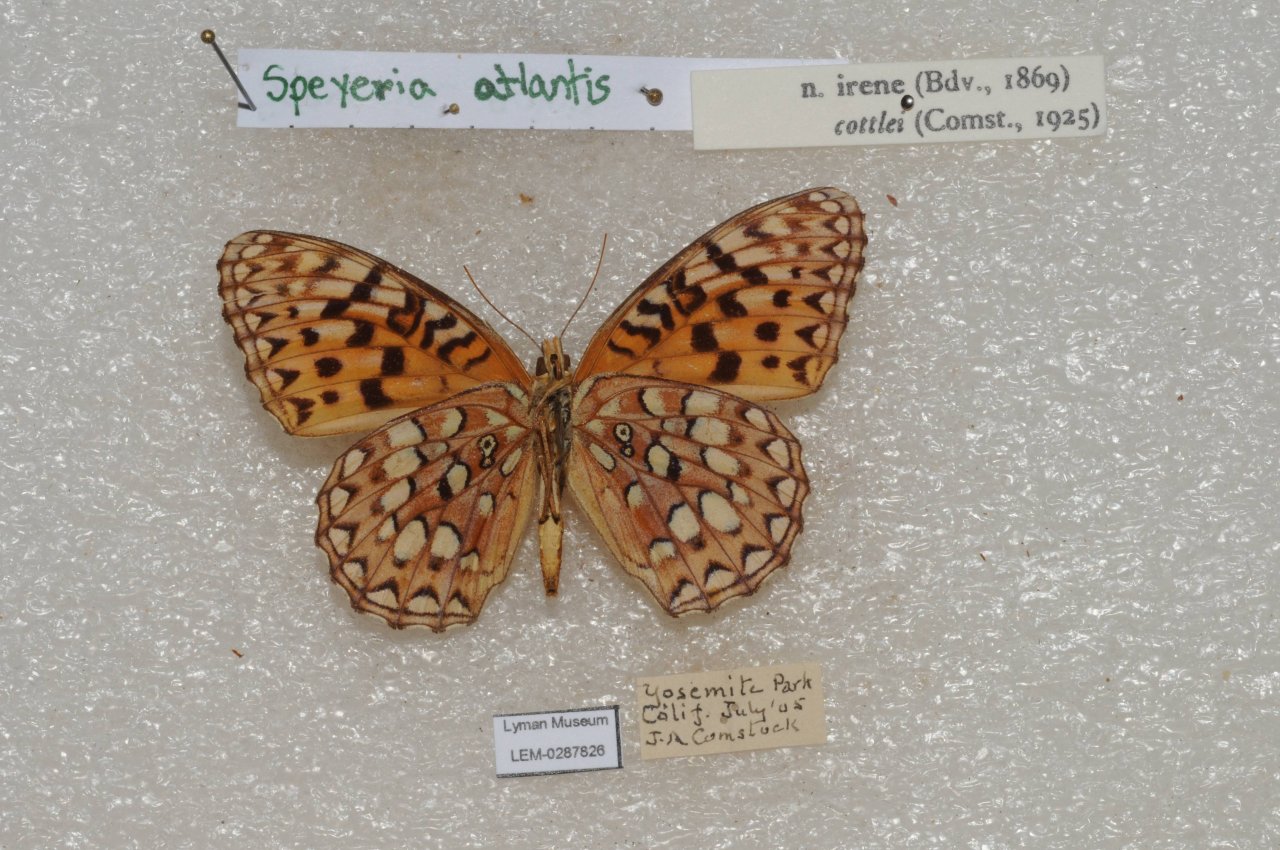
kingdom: Animalia
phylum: Arthropoda
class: Insecta
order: Lepidoptera
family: Nymphalidae
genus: Speyeria
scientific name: Speyeria
